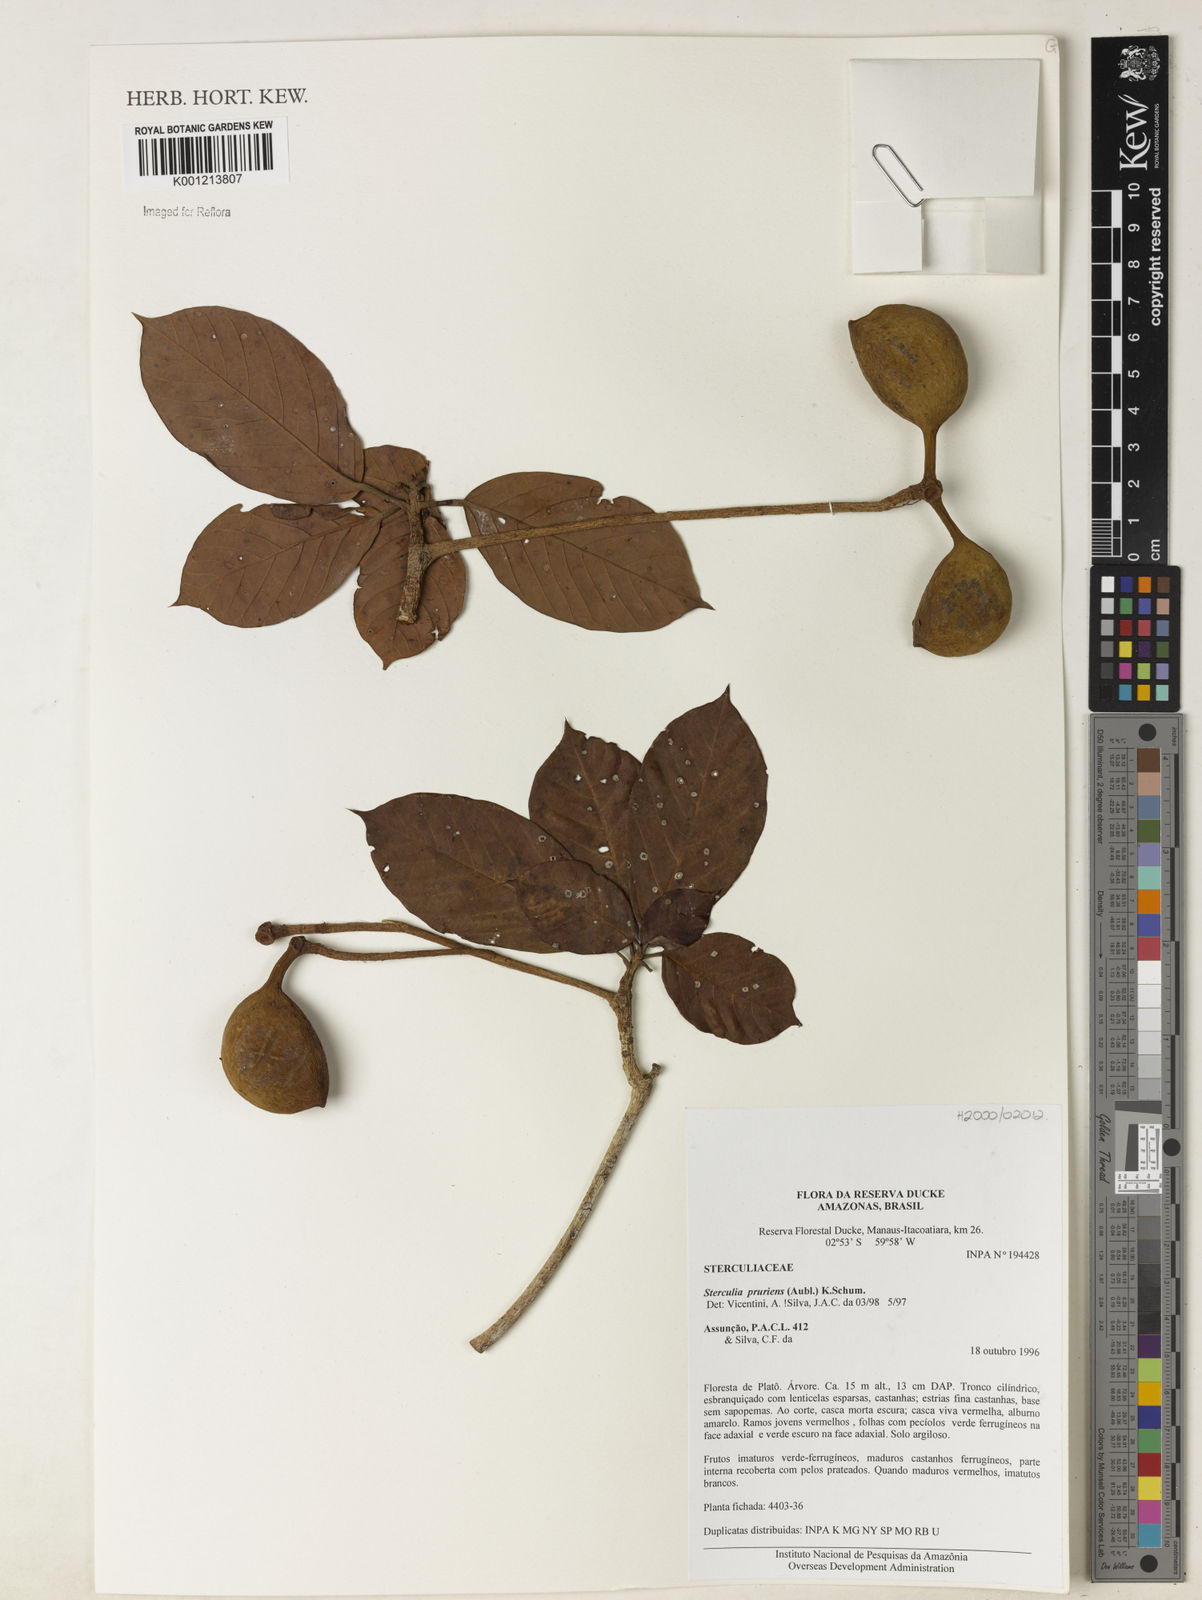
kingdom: Plantae
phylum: Tracheophyta
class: Magnoliopsida
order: Malvales
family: Malvaceae
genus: Sterculia
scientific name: Sterculia pruriens
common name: Grand mahot
